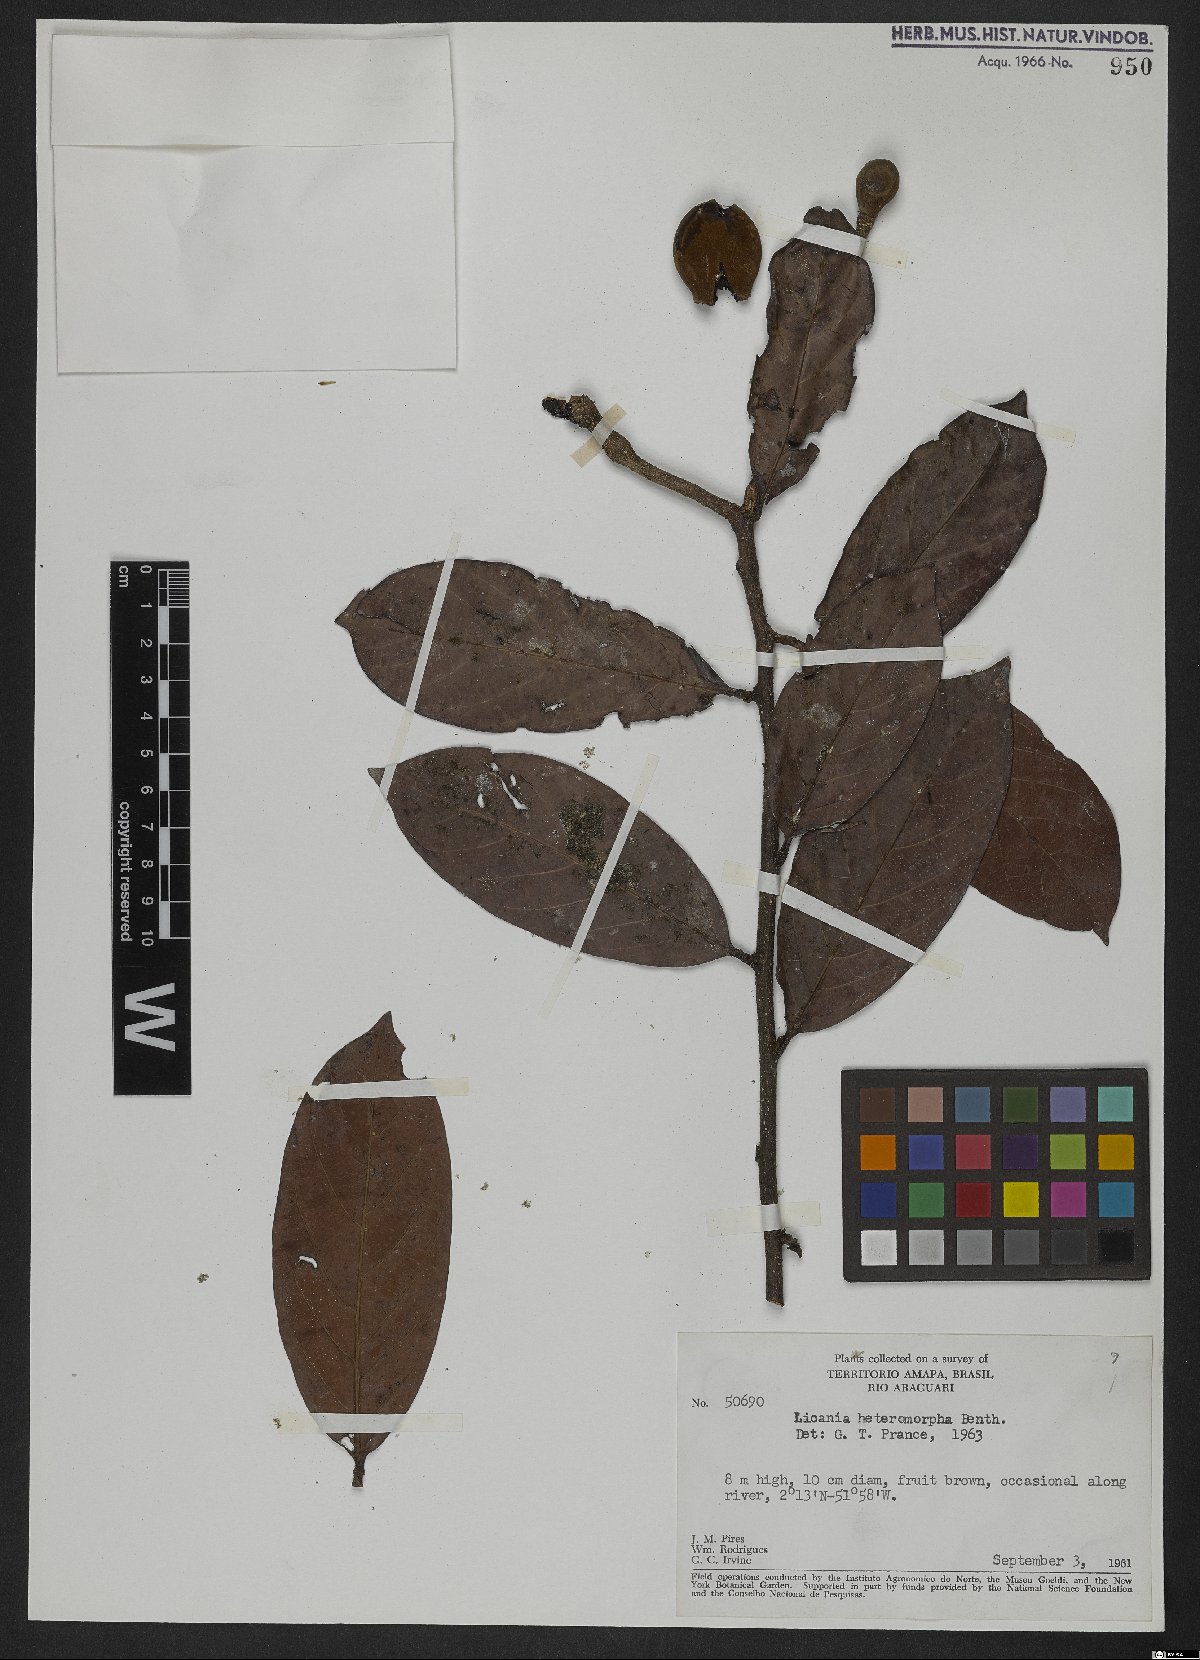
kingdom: Plantae
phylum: Tracheophyta
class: Magnoliopsida
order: Malpighiales
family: Chrysobalanaceae
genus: Hymenopus
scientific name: Hymenopus heteromorphus
